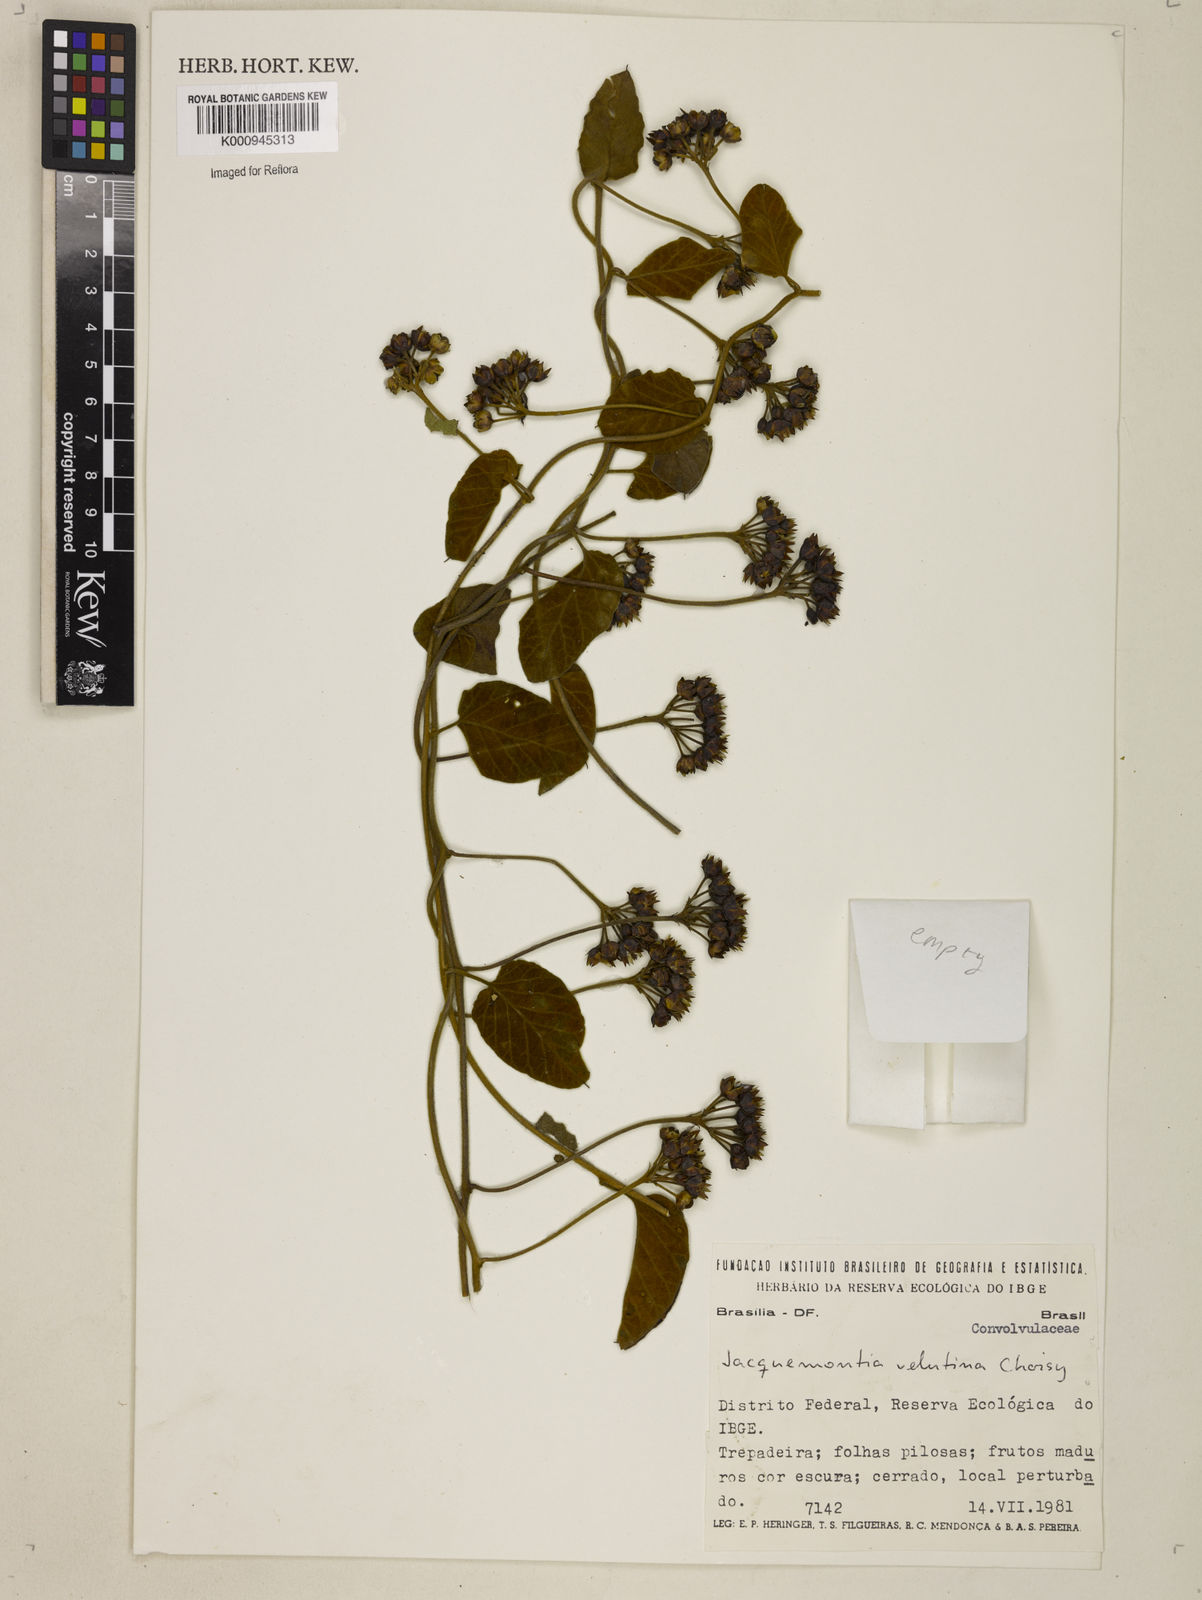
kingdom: Plantae
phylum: Tracheophyta
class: Magnoliopsida
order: Solanales
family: Convolvulaceae
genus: Jacquemontia
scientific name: Jacquemontia velutina
